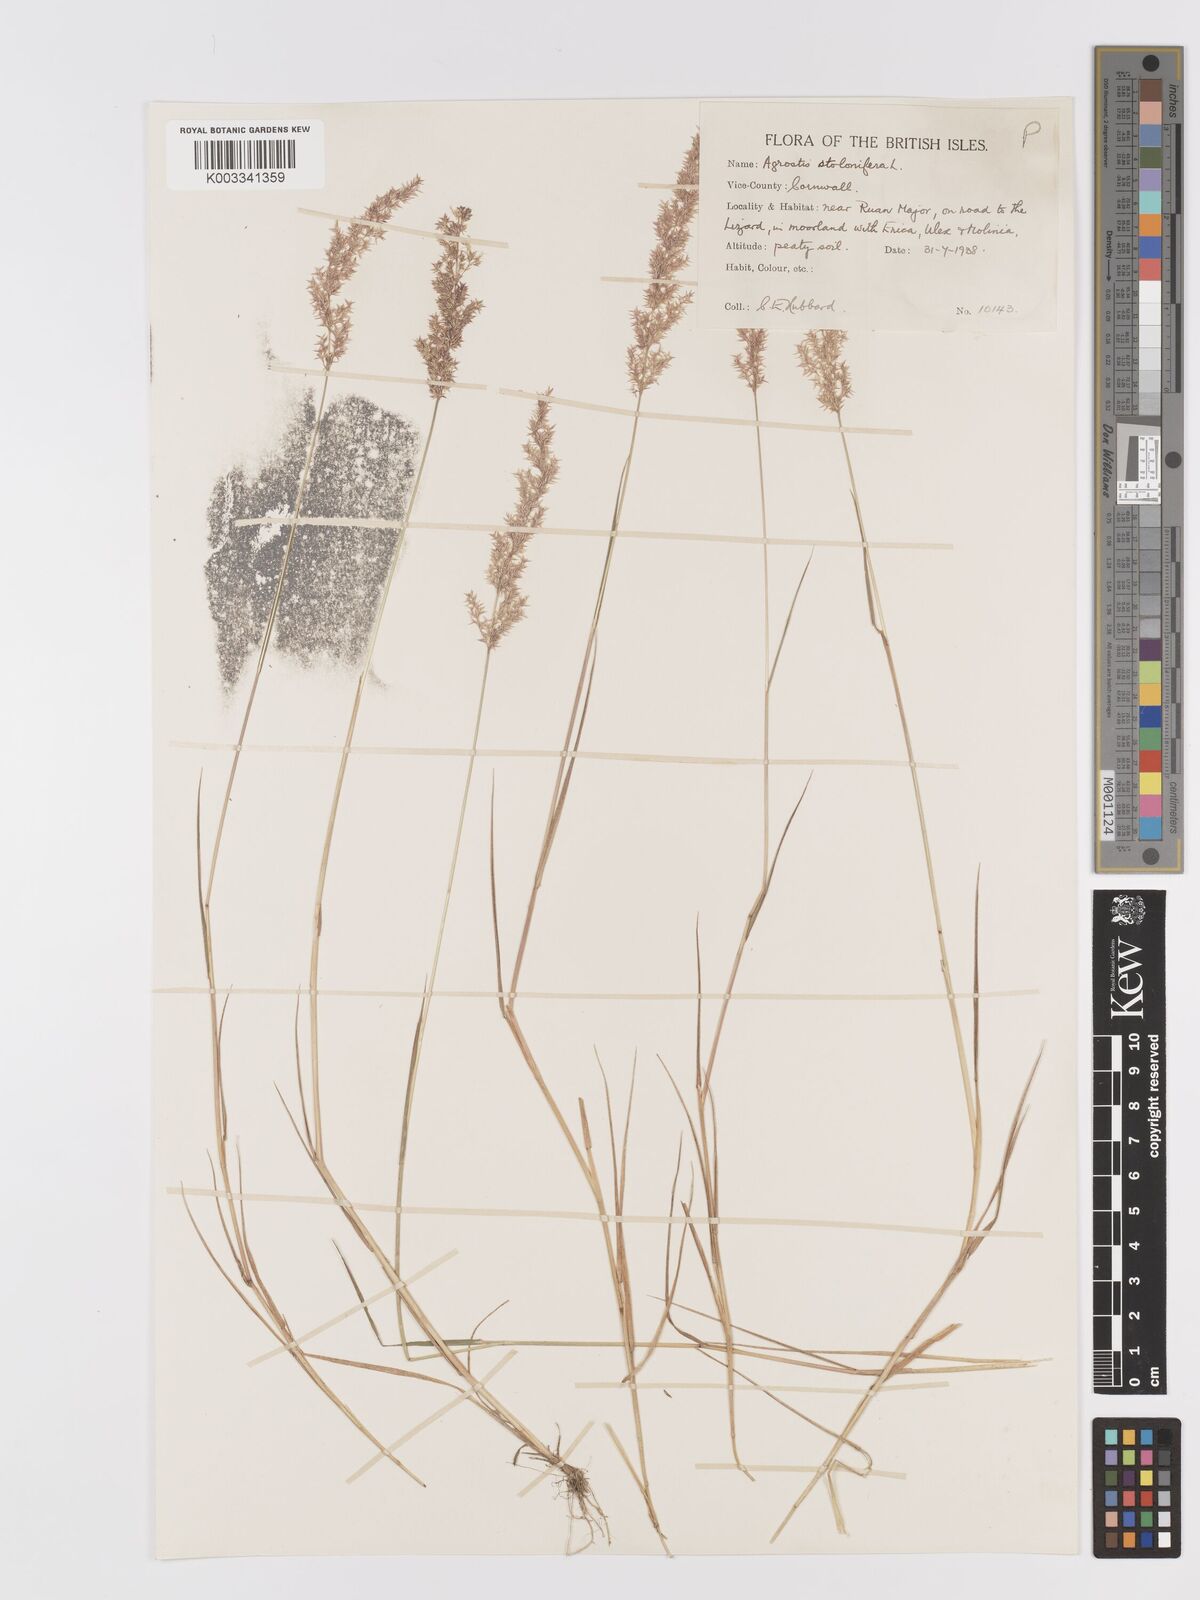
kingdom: Plantae
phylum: Tracheophyta
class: Liliopsida
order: Poales
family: Poaceae
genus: Agrostis
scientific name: Agrostis stolonifera
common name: Creeping bentgrass
